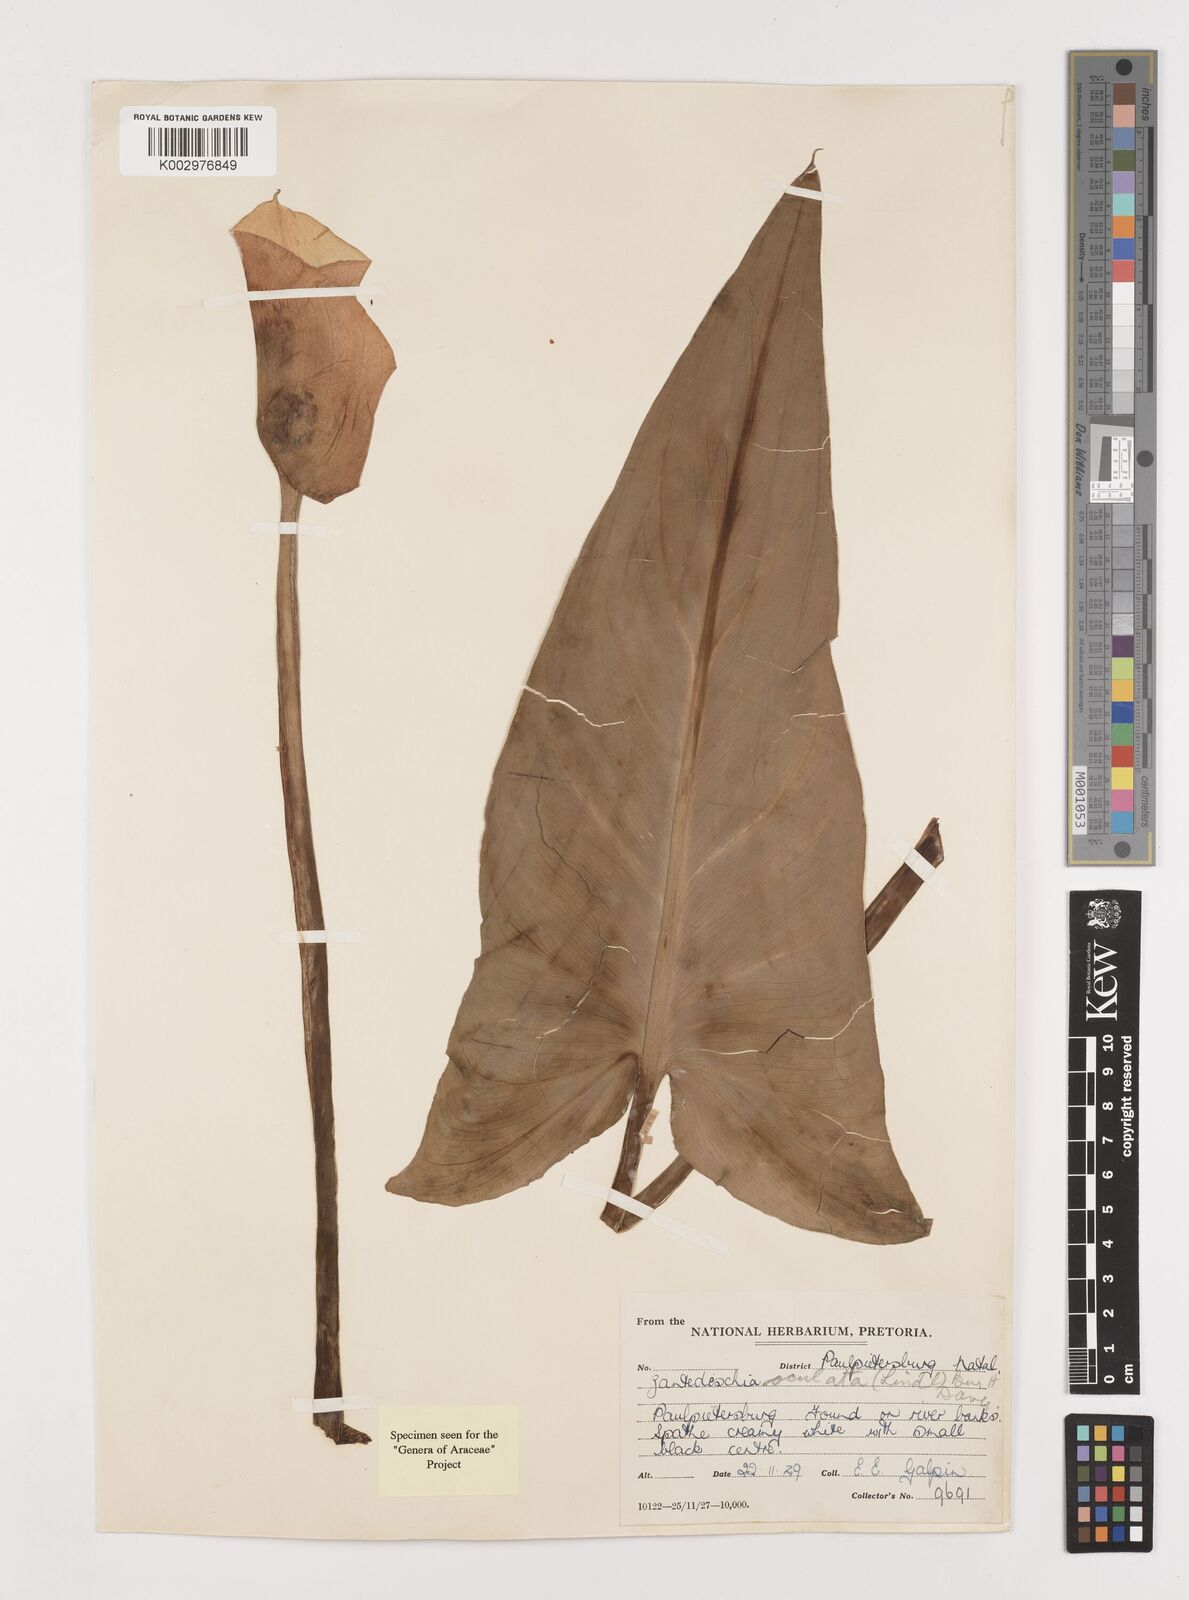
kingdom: Plantae
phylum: Tracheophyta
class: Liliopsida
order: Alismatales
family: Araceae
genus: Zantedeschia
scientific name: Zantedeschia albomaculata
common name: Spotted calla lily
